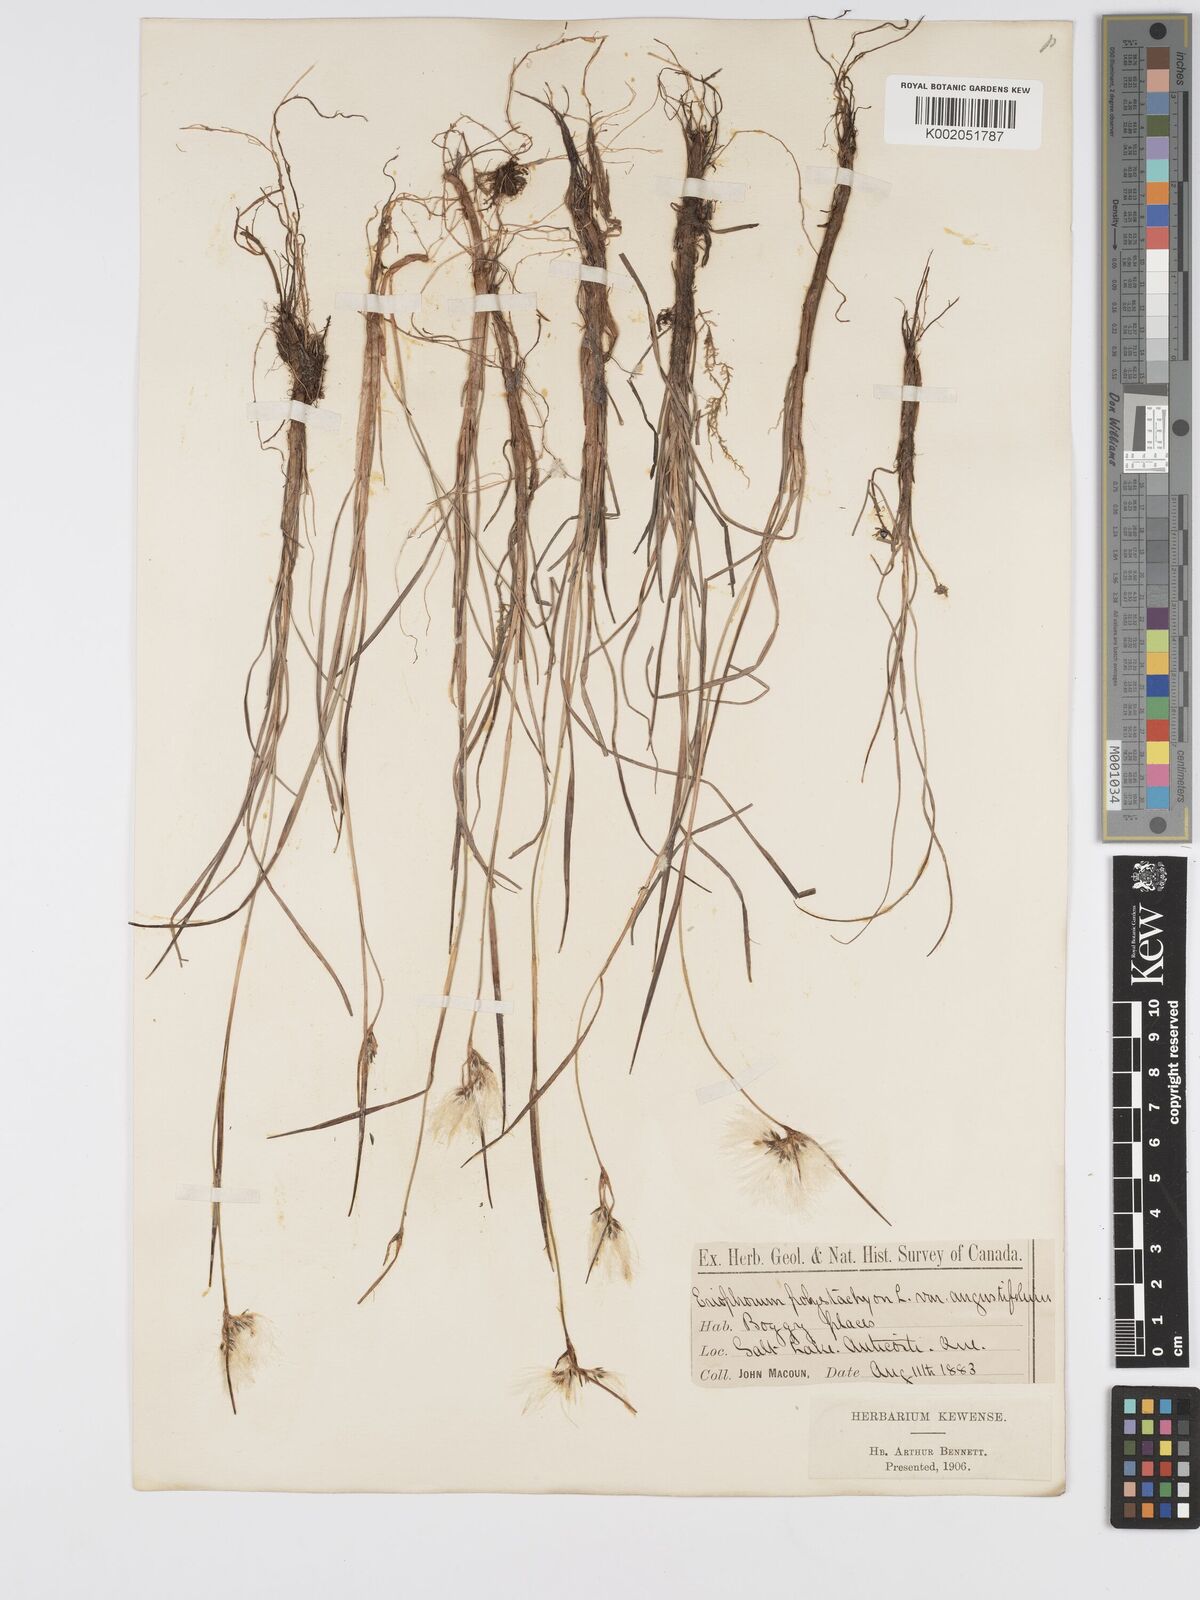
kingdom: Plantae
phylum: Tracheophyta
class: Liliopsida
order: Poales
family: Cyperaceae
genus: Eriophorum
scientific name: Eriophorum angustifolium
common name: Common cottongrass
